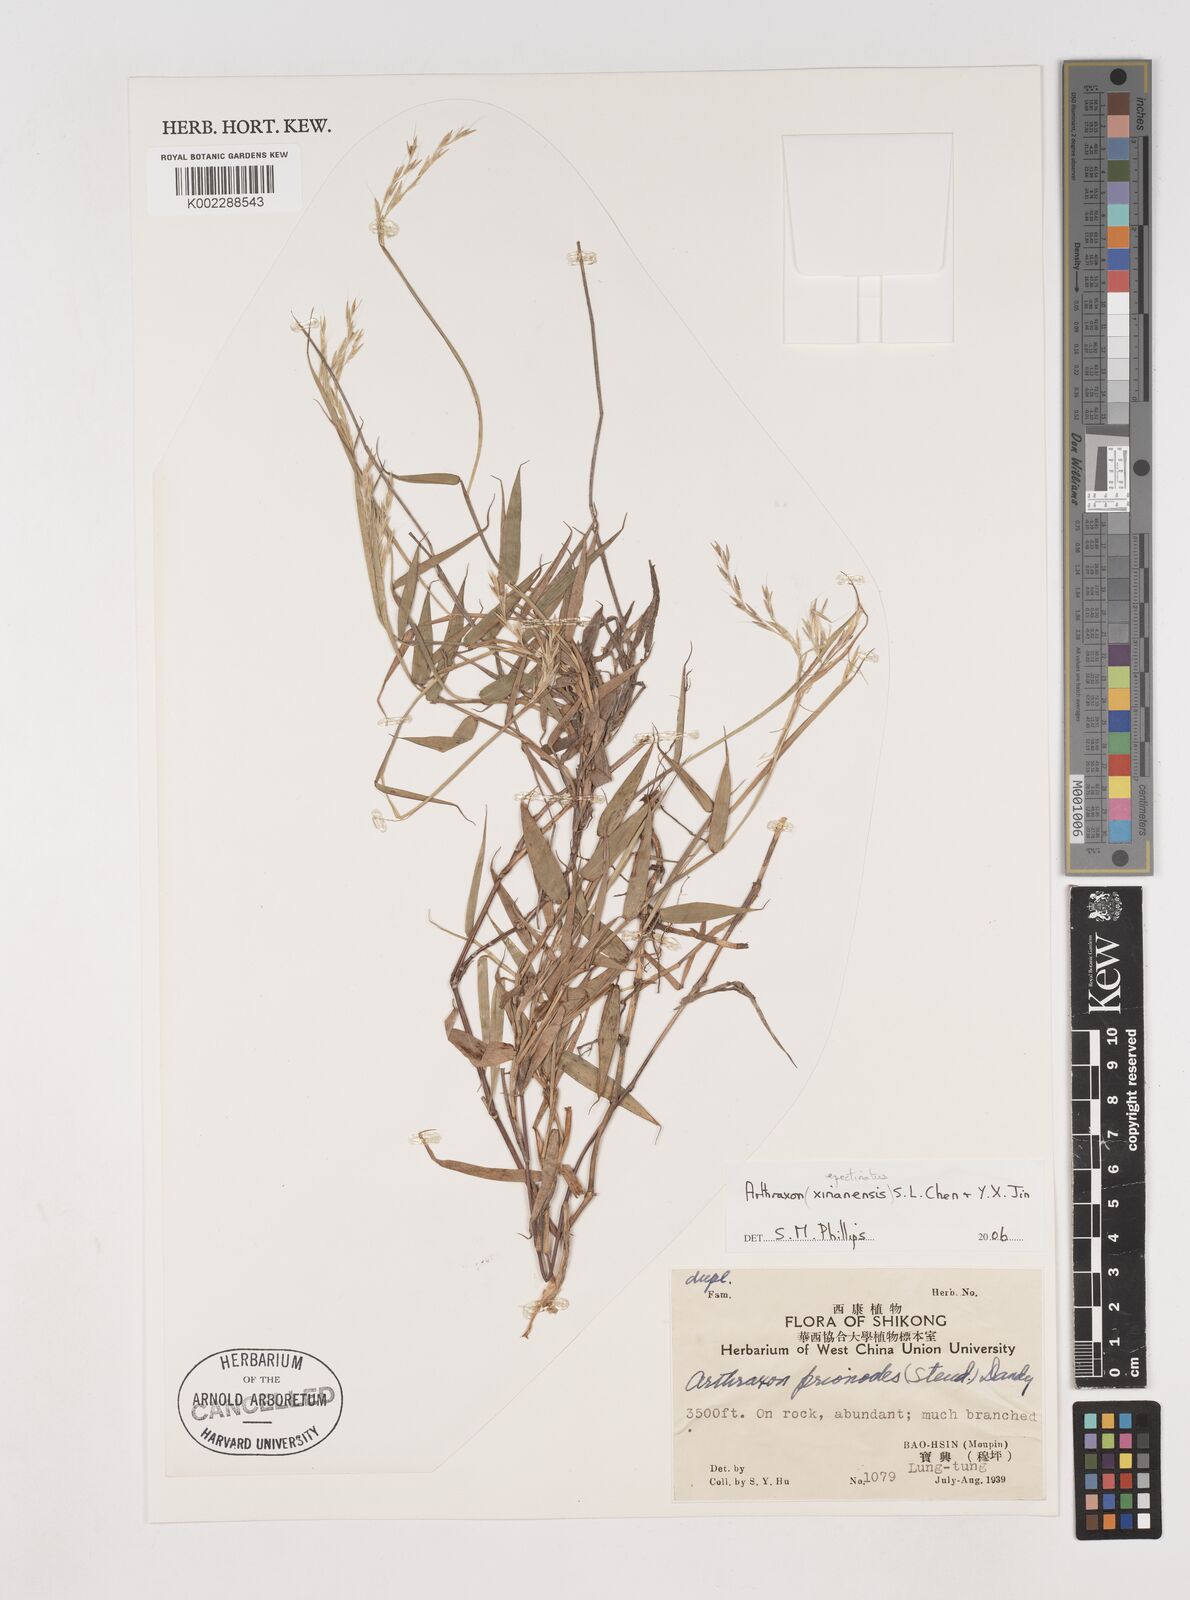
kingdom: Plantae
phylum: Tracheophyta
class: Liliopsida
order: Poales
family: Poaceae
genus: Arthraxon
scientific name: Arthraxon epectinatus
